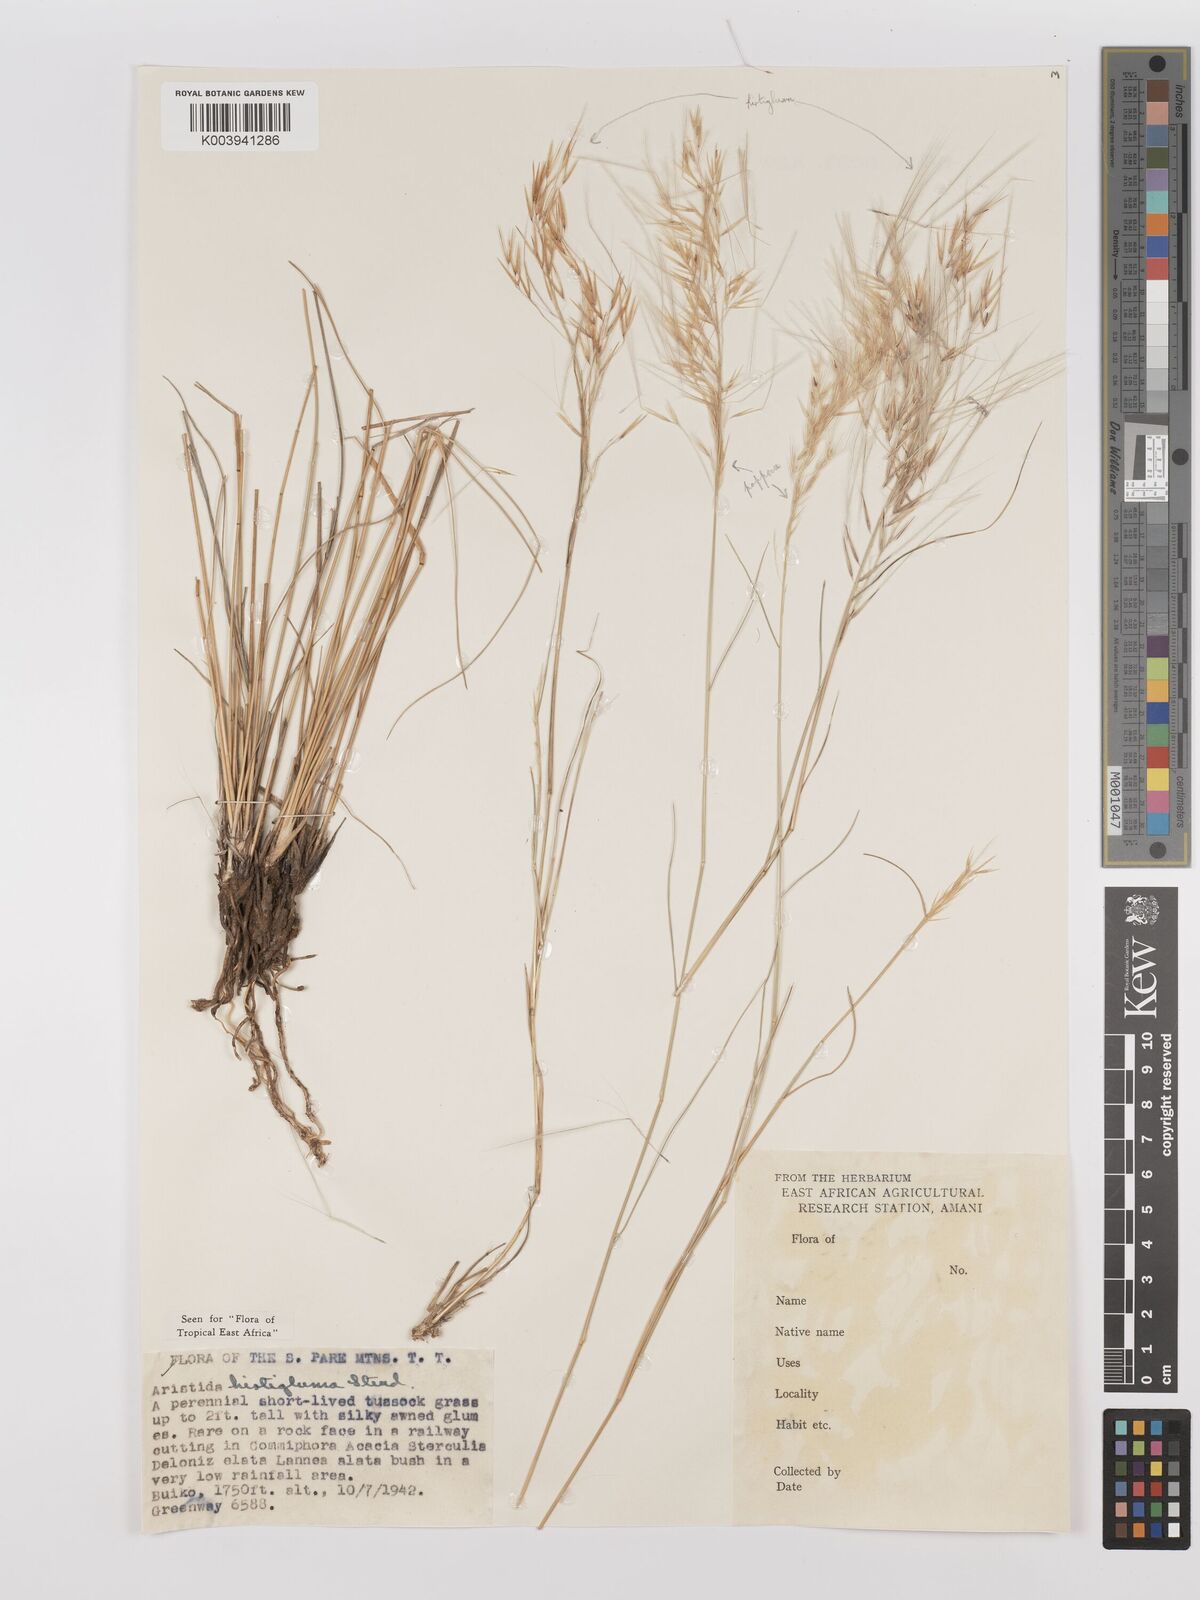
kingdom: Plantae
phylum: Tracheophyta
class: Liliopsida
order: Poales
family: Poaceae
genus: Stipagrostis
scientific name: Stipagrostis hirtigluma
